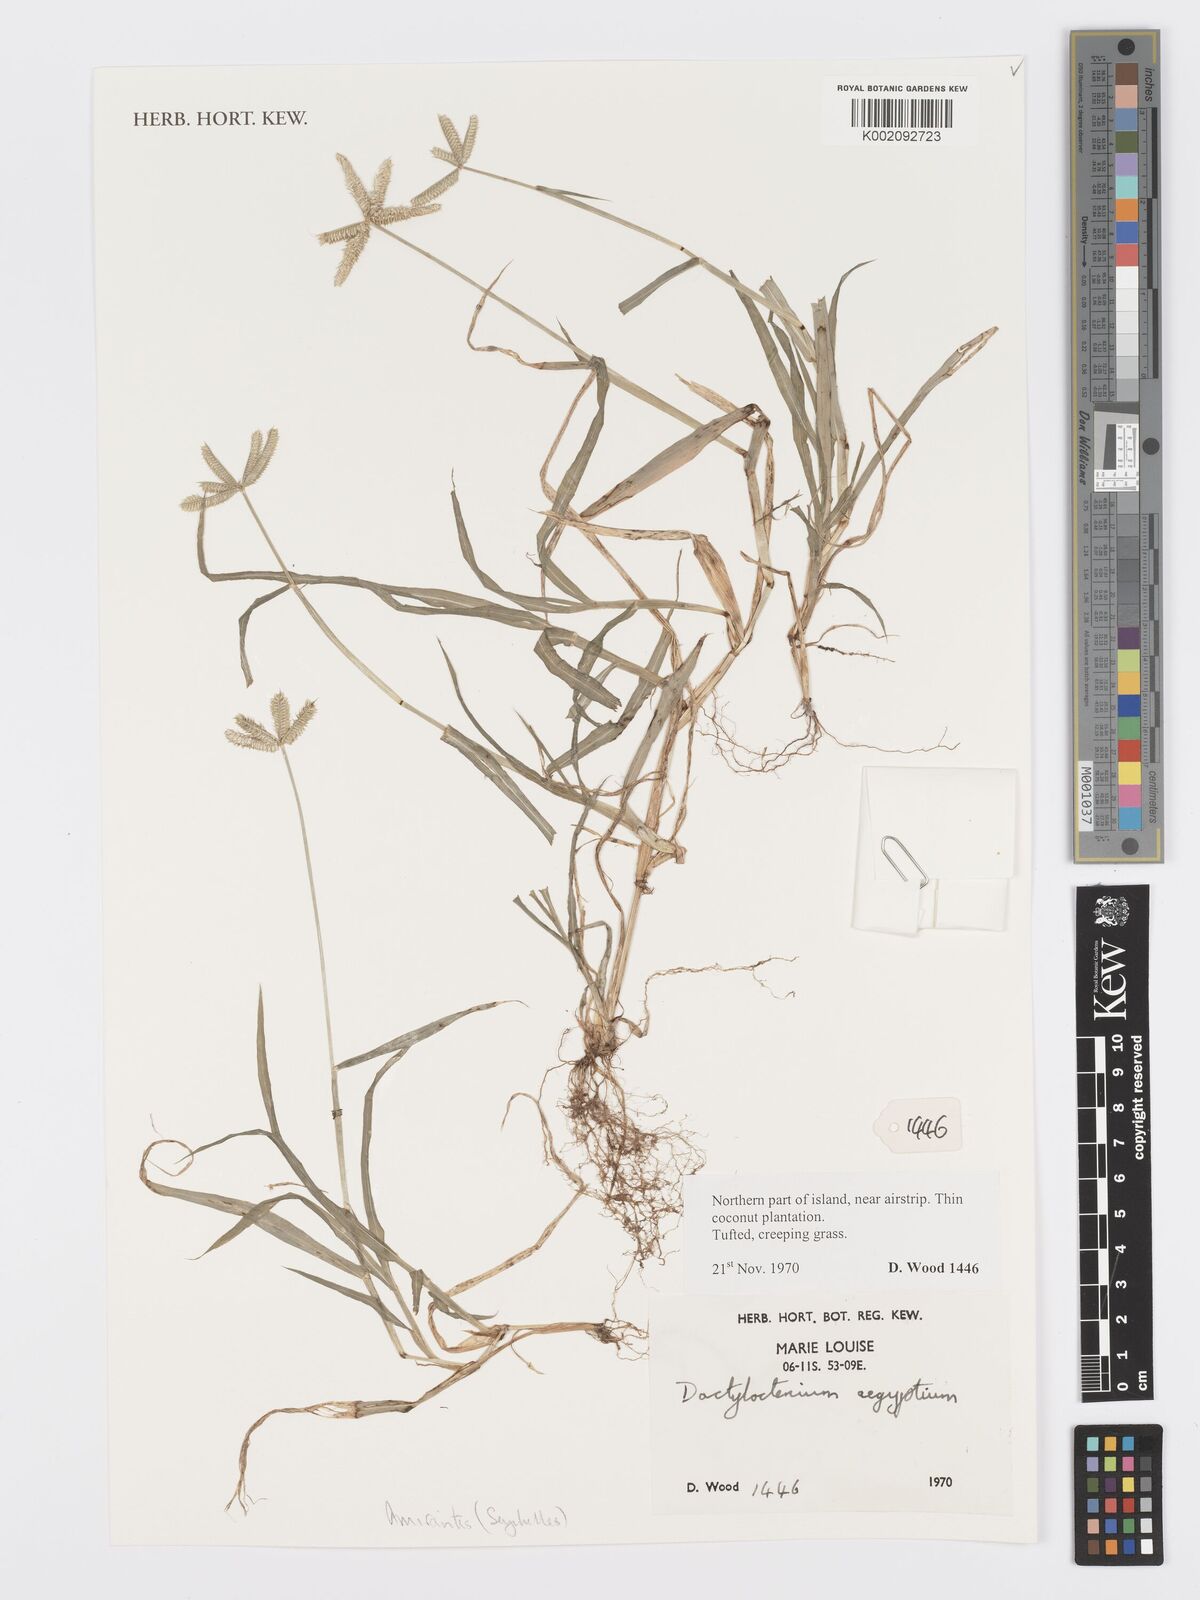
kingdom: Plantae
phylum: Tracheophyta
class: Liliopsida
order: Poales
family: Poaceae
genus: Dactyloctenium
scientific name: Dactyloctenium aegyptium
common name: Egyptian grass
